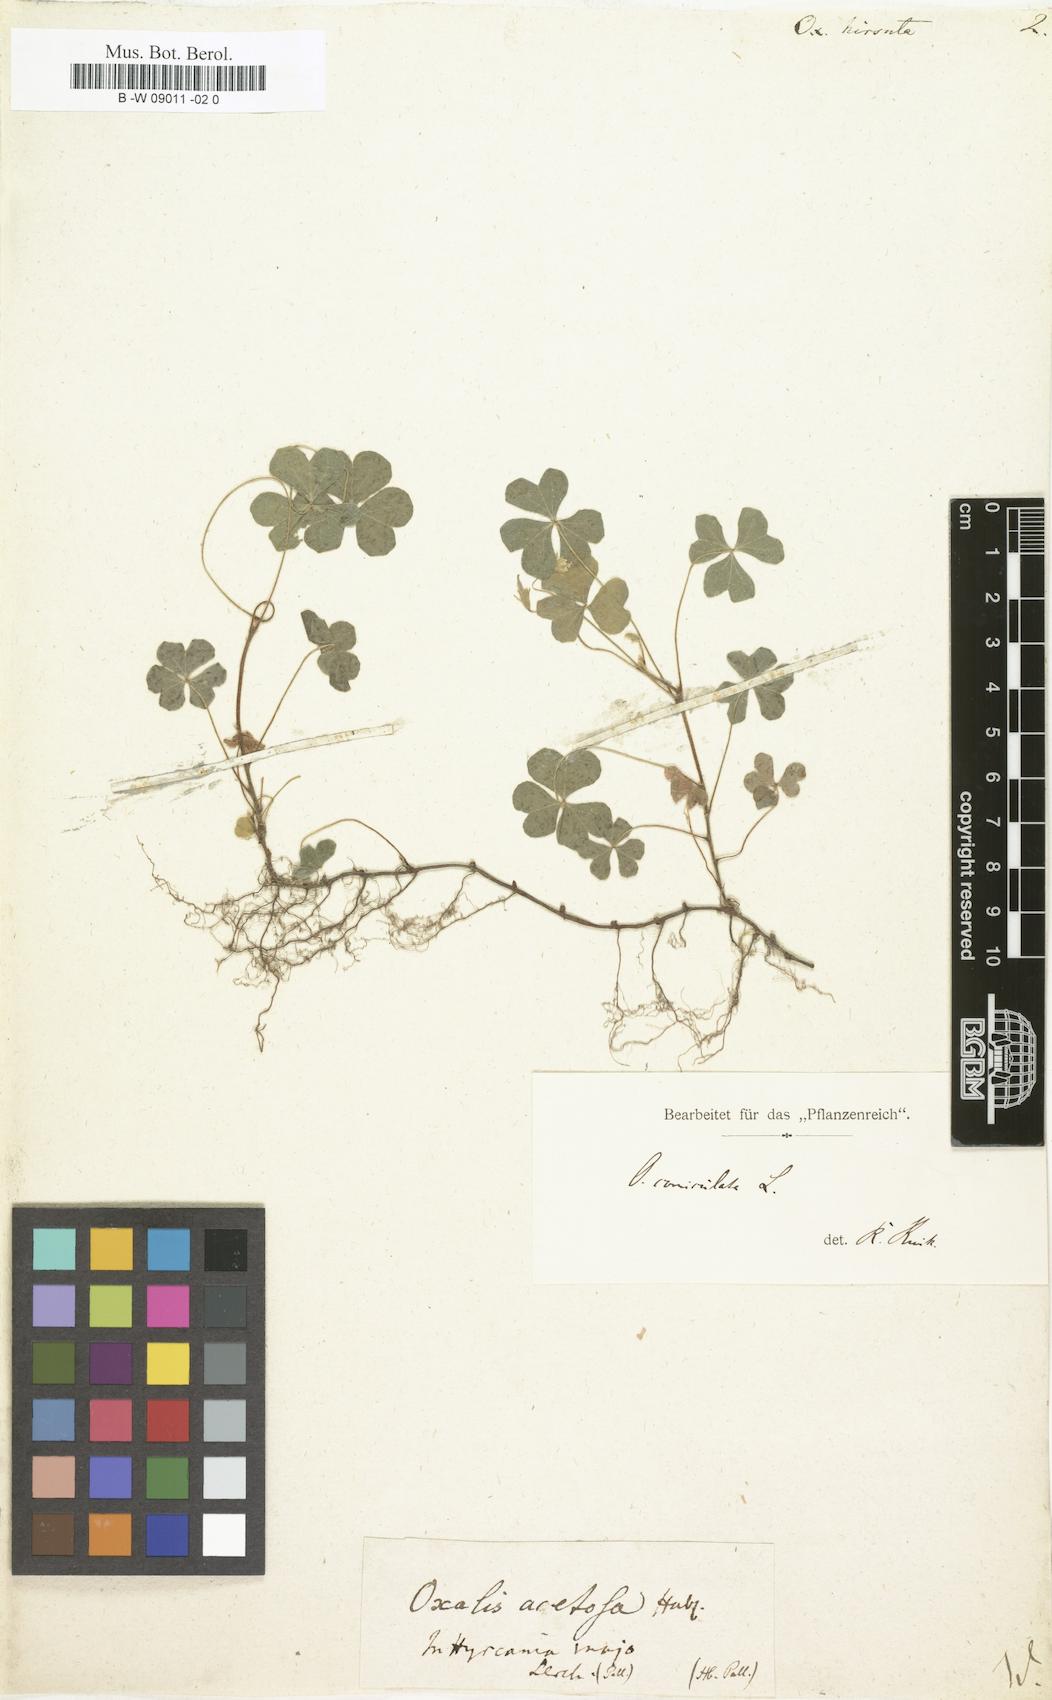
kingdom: Plantae
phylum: Tracheophyta
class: Magnoliopsida
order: Oxalidales
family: Oxalidaceae
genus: Oxalis
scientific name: Oxalis hirsuta
